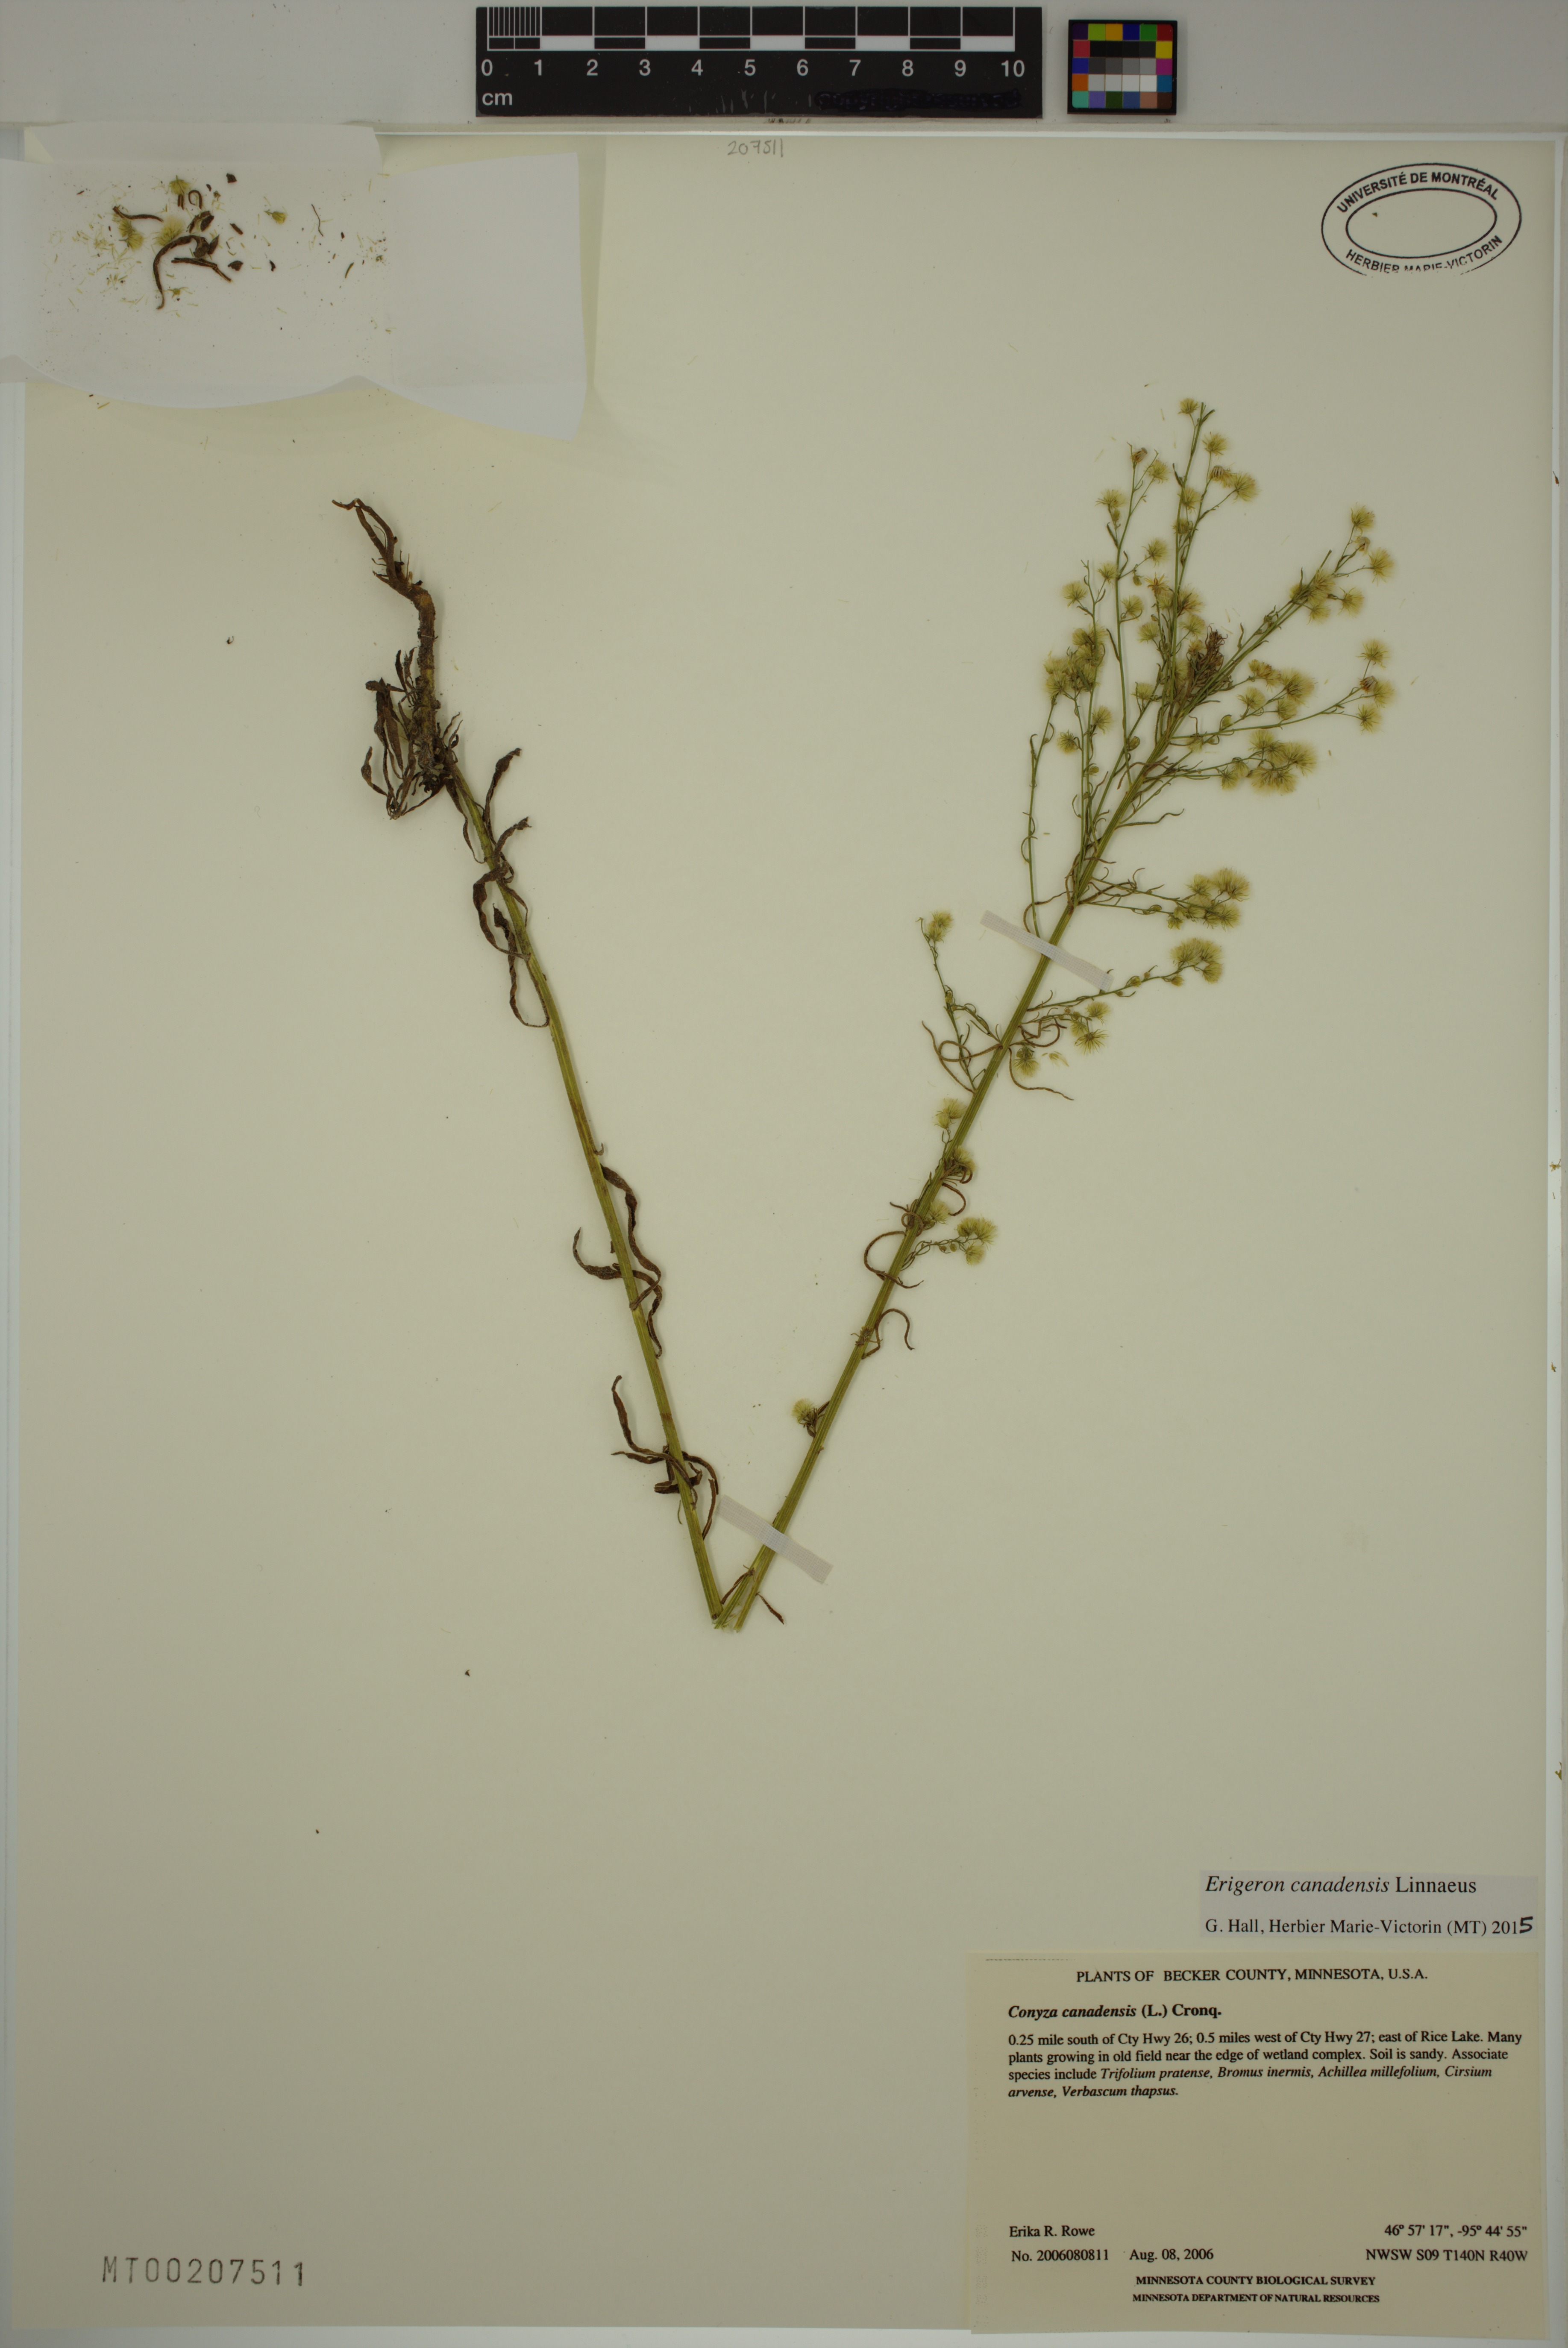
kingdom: Plantae
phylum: Tracheophyta
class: Magnoliopsida
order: Asterales
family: Asteraceae
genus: Erigeron
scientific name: Erigeron canadensis
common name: Canadian fleabane
